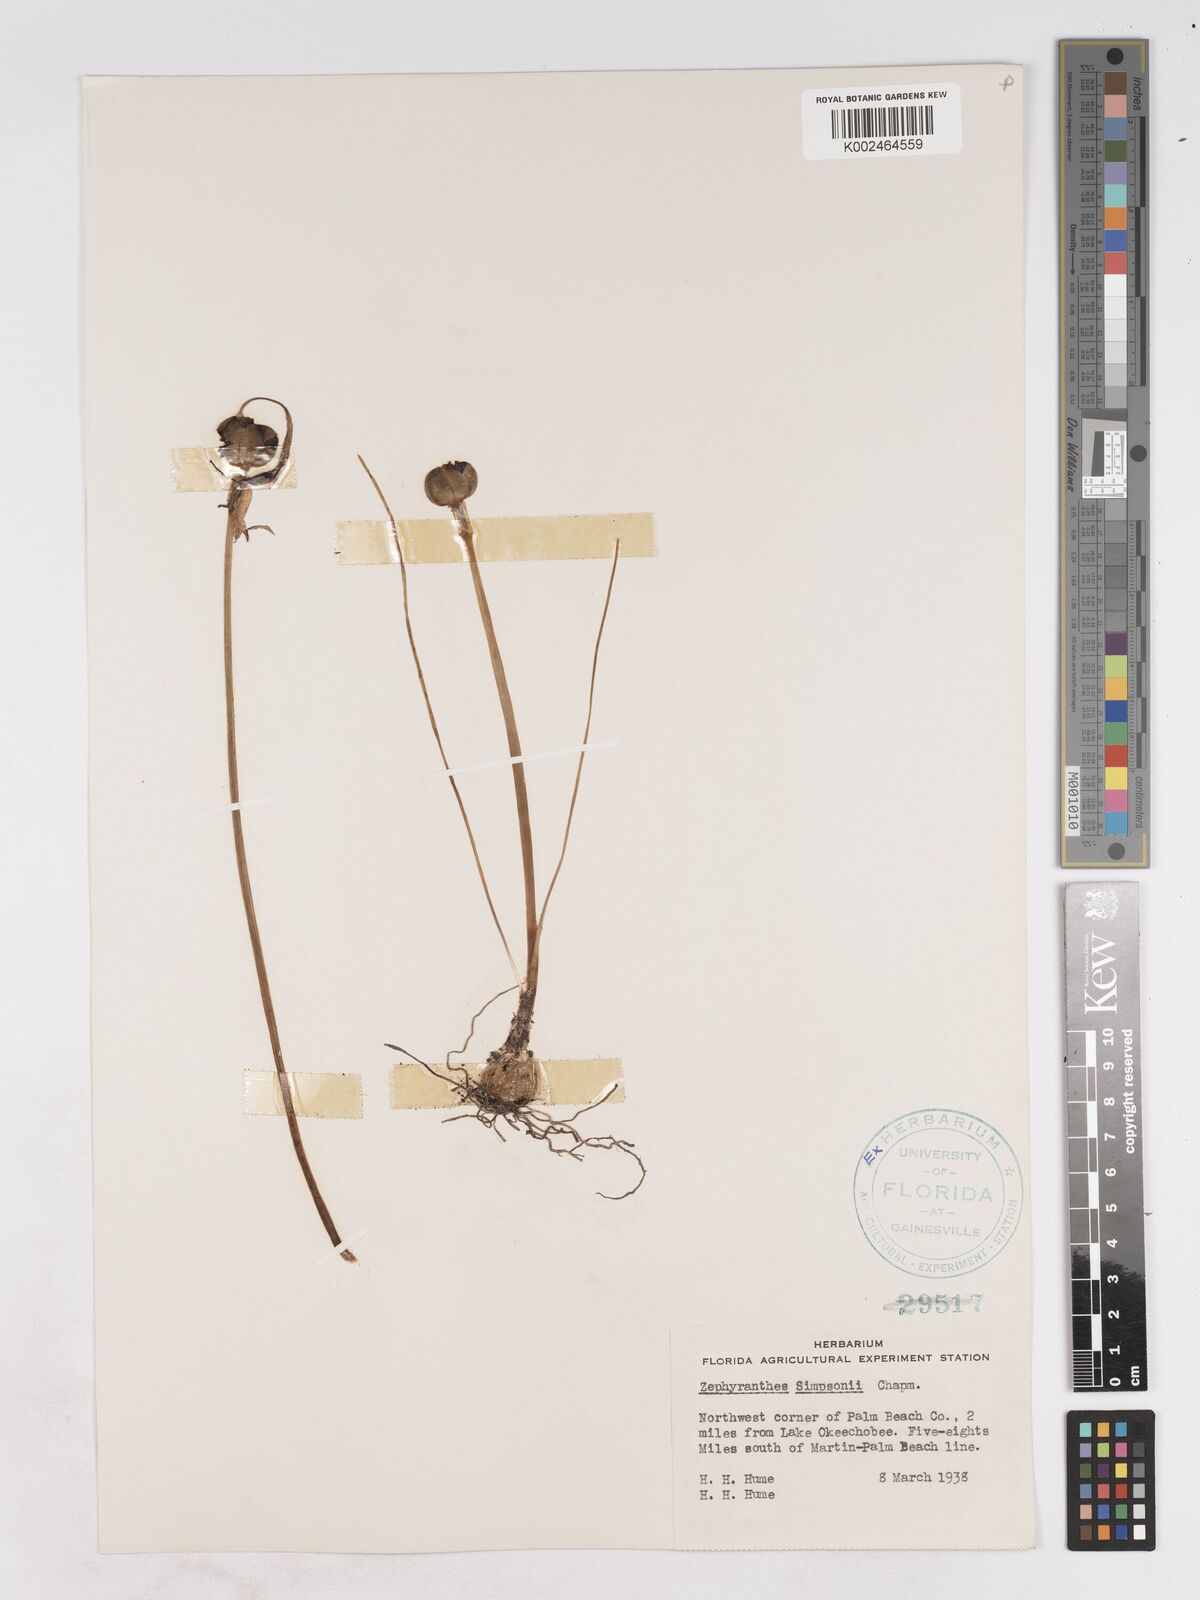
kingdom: Plantae
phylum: Tracheophyta
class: Liliopsida
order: Asparagales
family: Amaryllidaceae
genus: Zephyranthes
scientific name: Zephyranthes simpsonii
